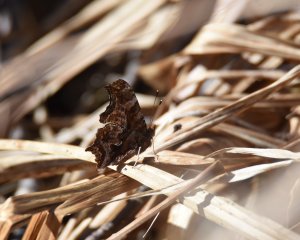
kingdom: Animalia
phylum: Arthropoda
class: Insecta
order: Lepidoptera
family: Nymphalidae
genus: Polygonia
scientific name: Polygonia comma
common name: Eastern Comma
